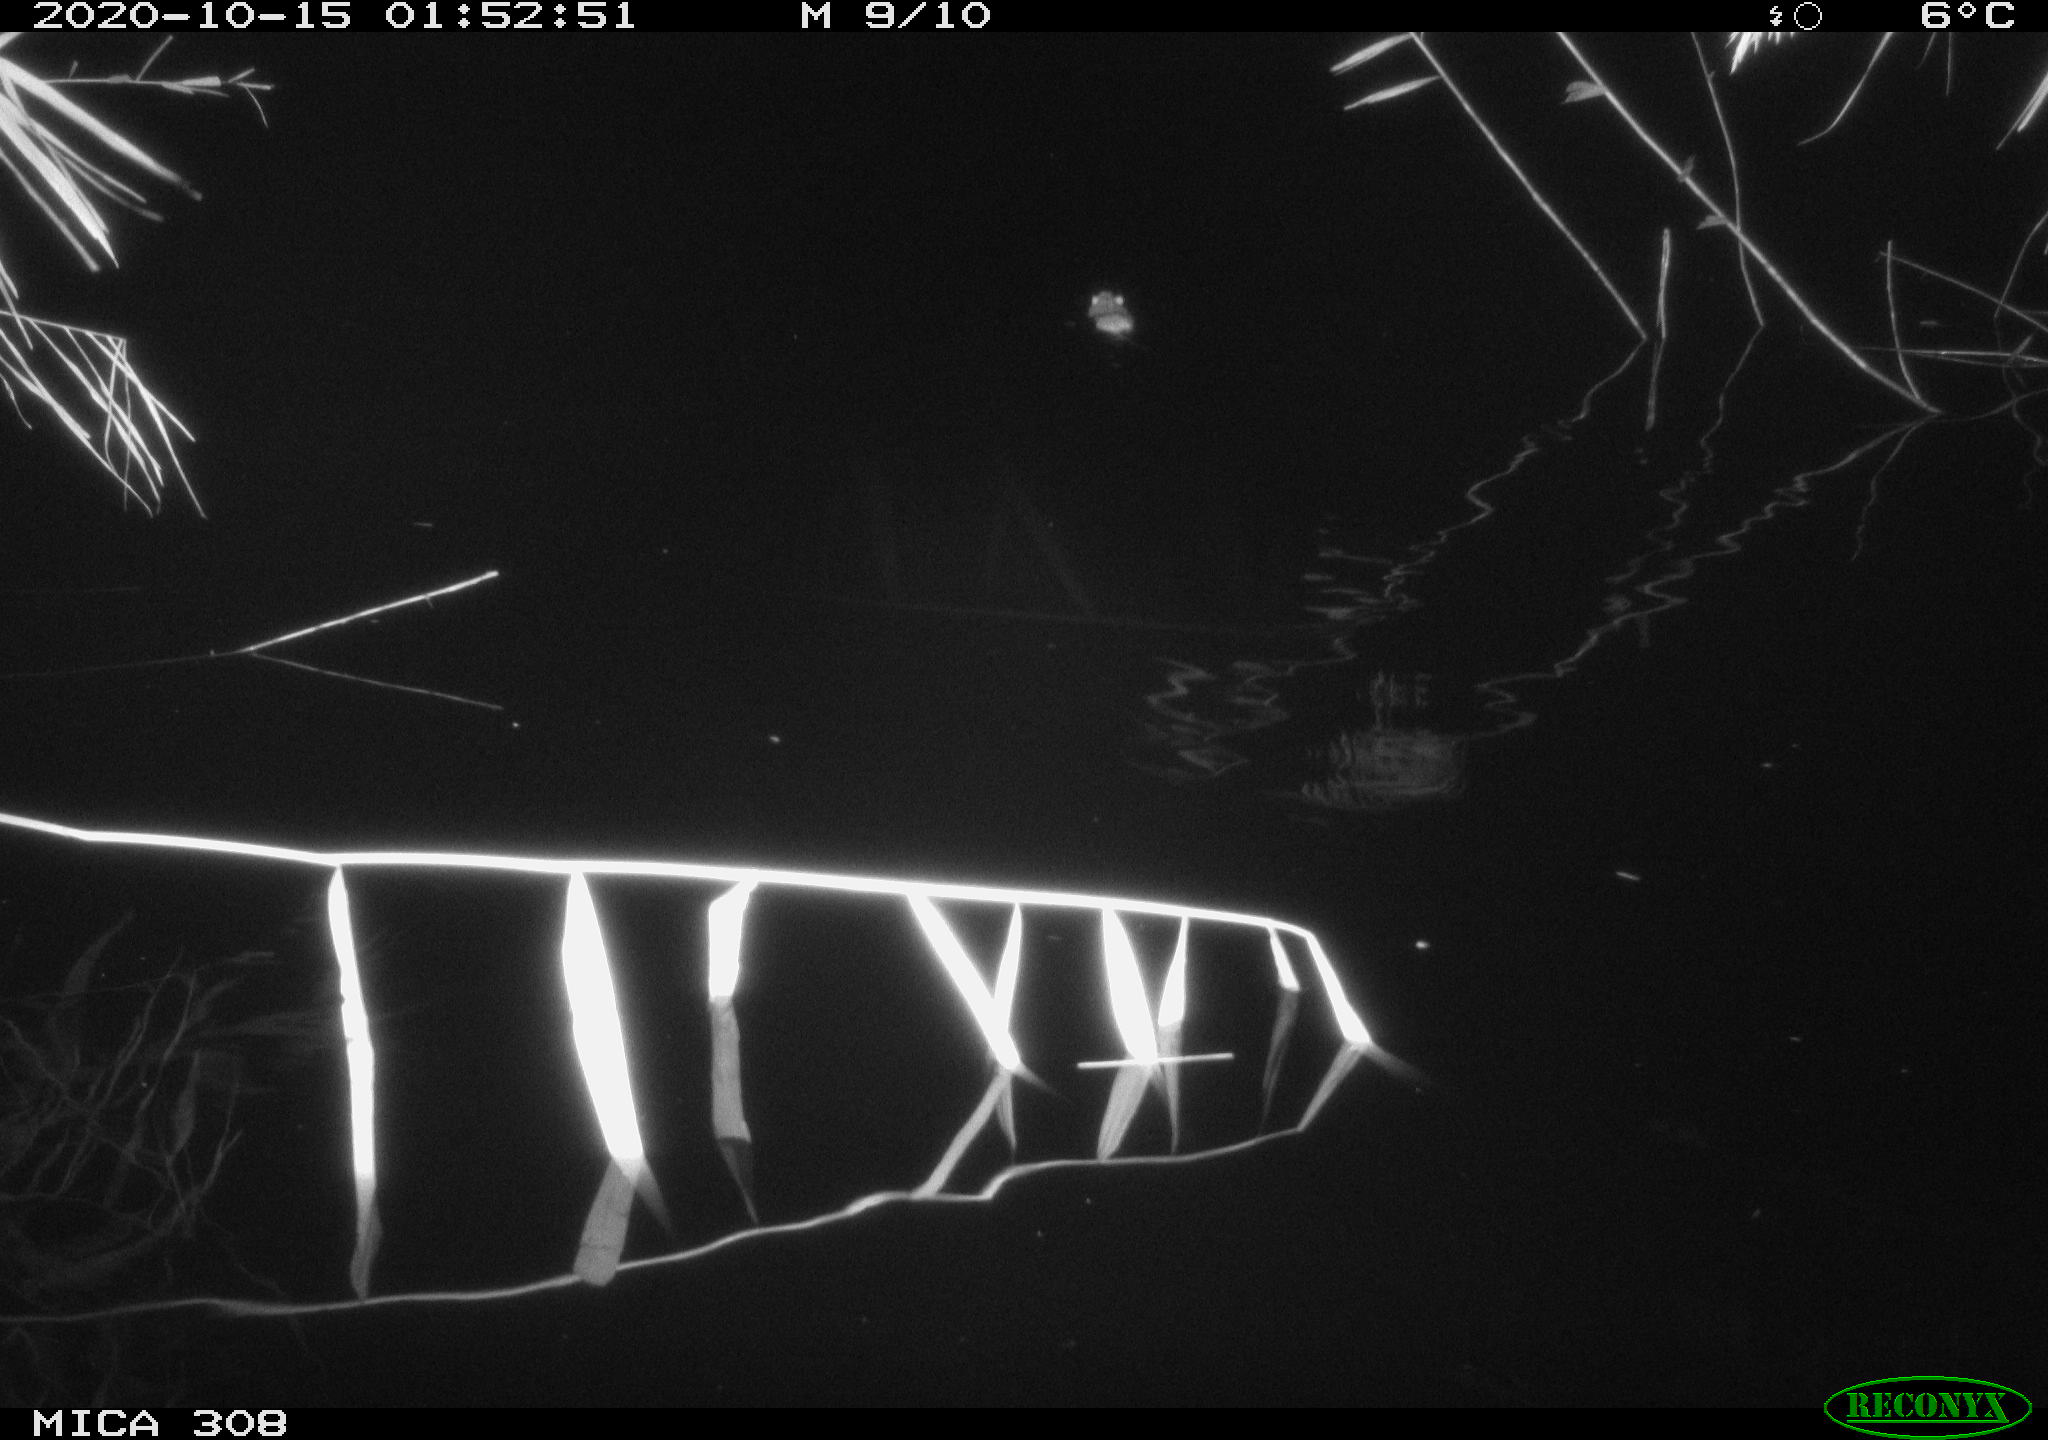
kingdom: Animalia
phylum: Chordata
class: Mammalia
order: Rodentia
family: Muridae
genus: Rattus
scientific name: Rattus norvegicus
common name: Brown rat
